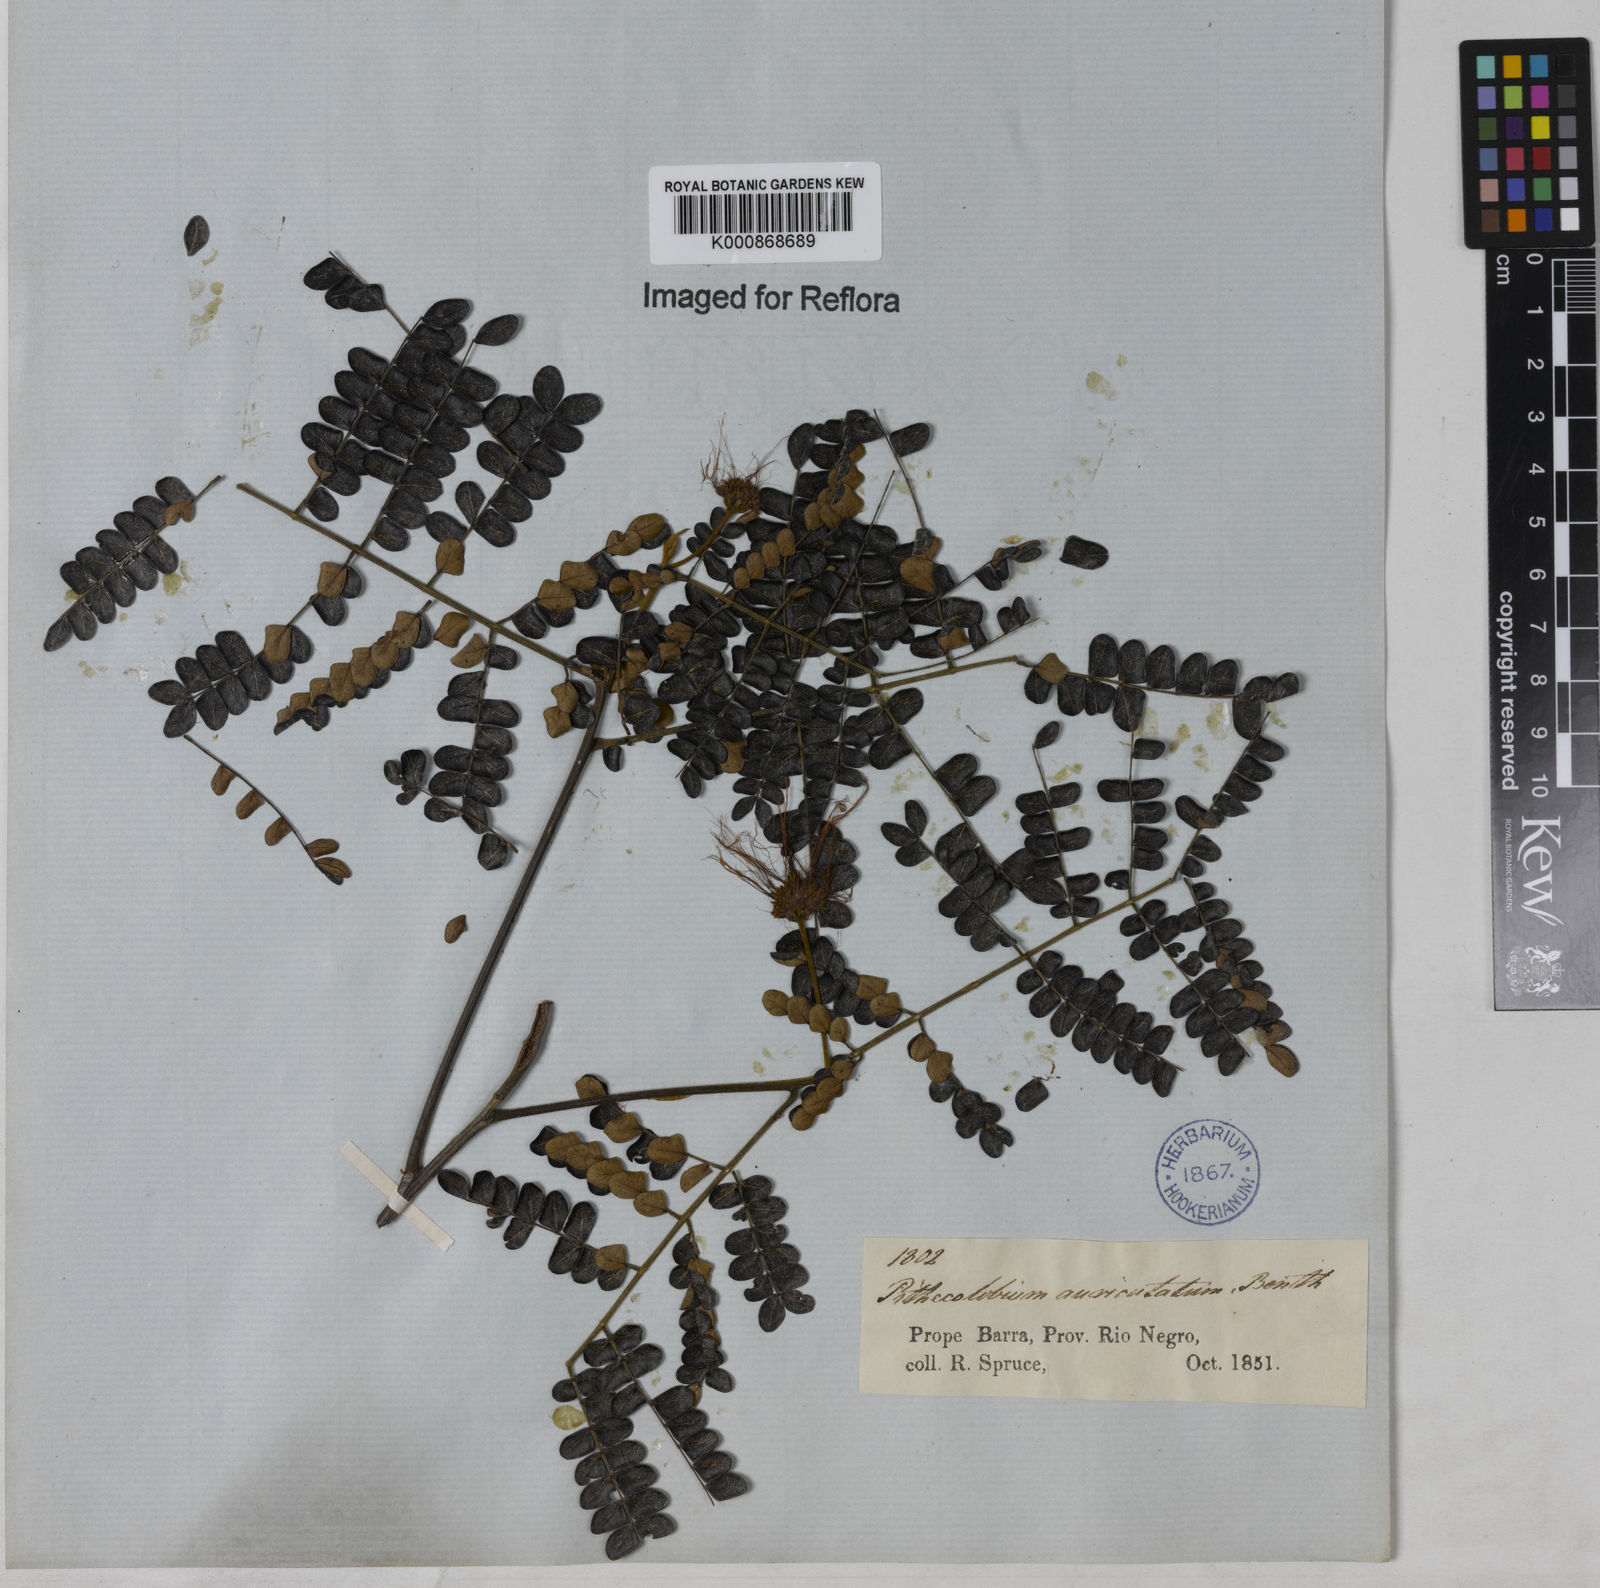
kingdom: Plantae
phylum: Tracheophyta
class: Magnoliopsida
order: Fabales
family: Fabaceae
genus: Jupunba
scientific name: Jupunba auriculata
